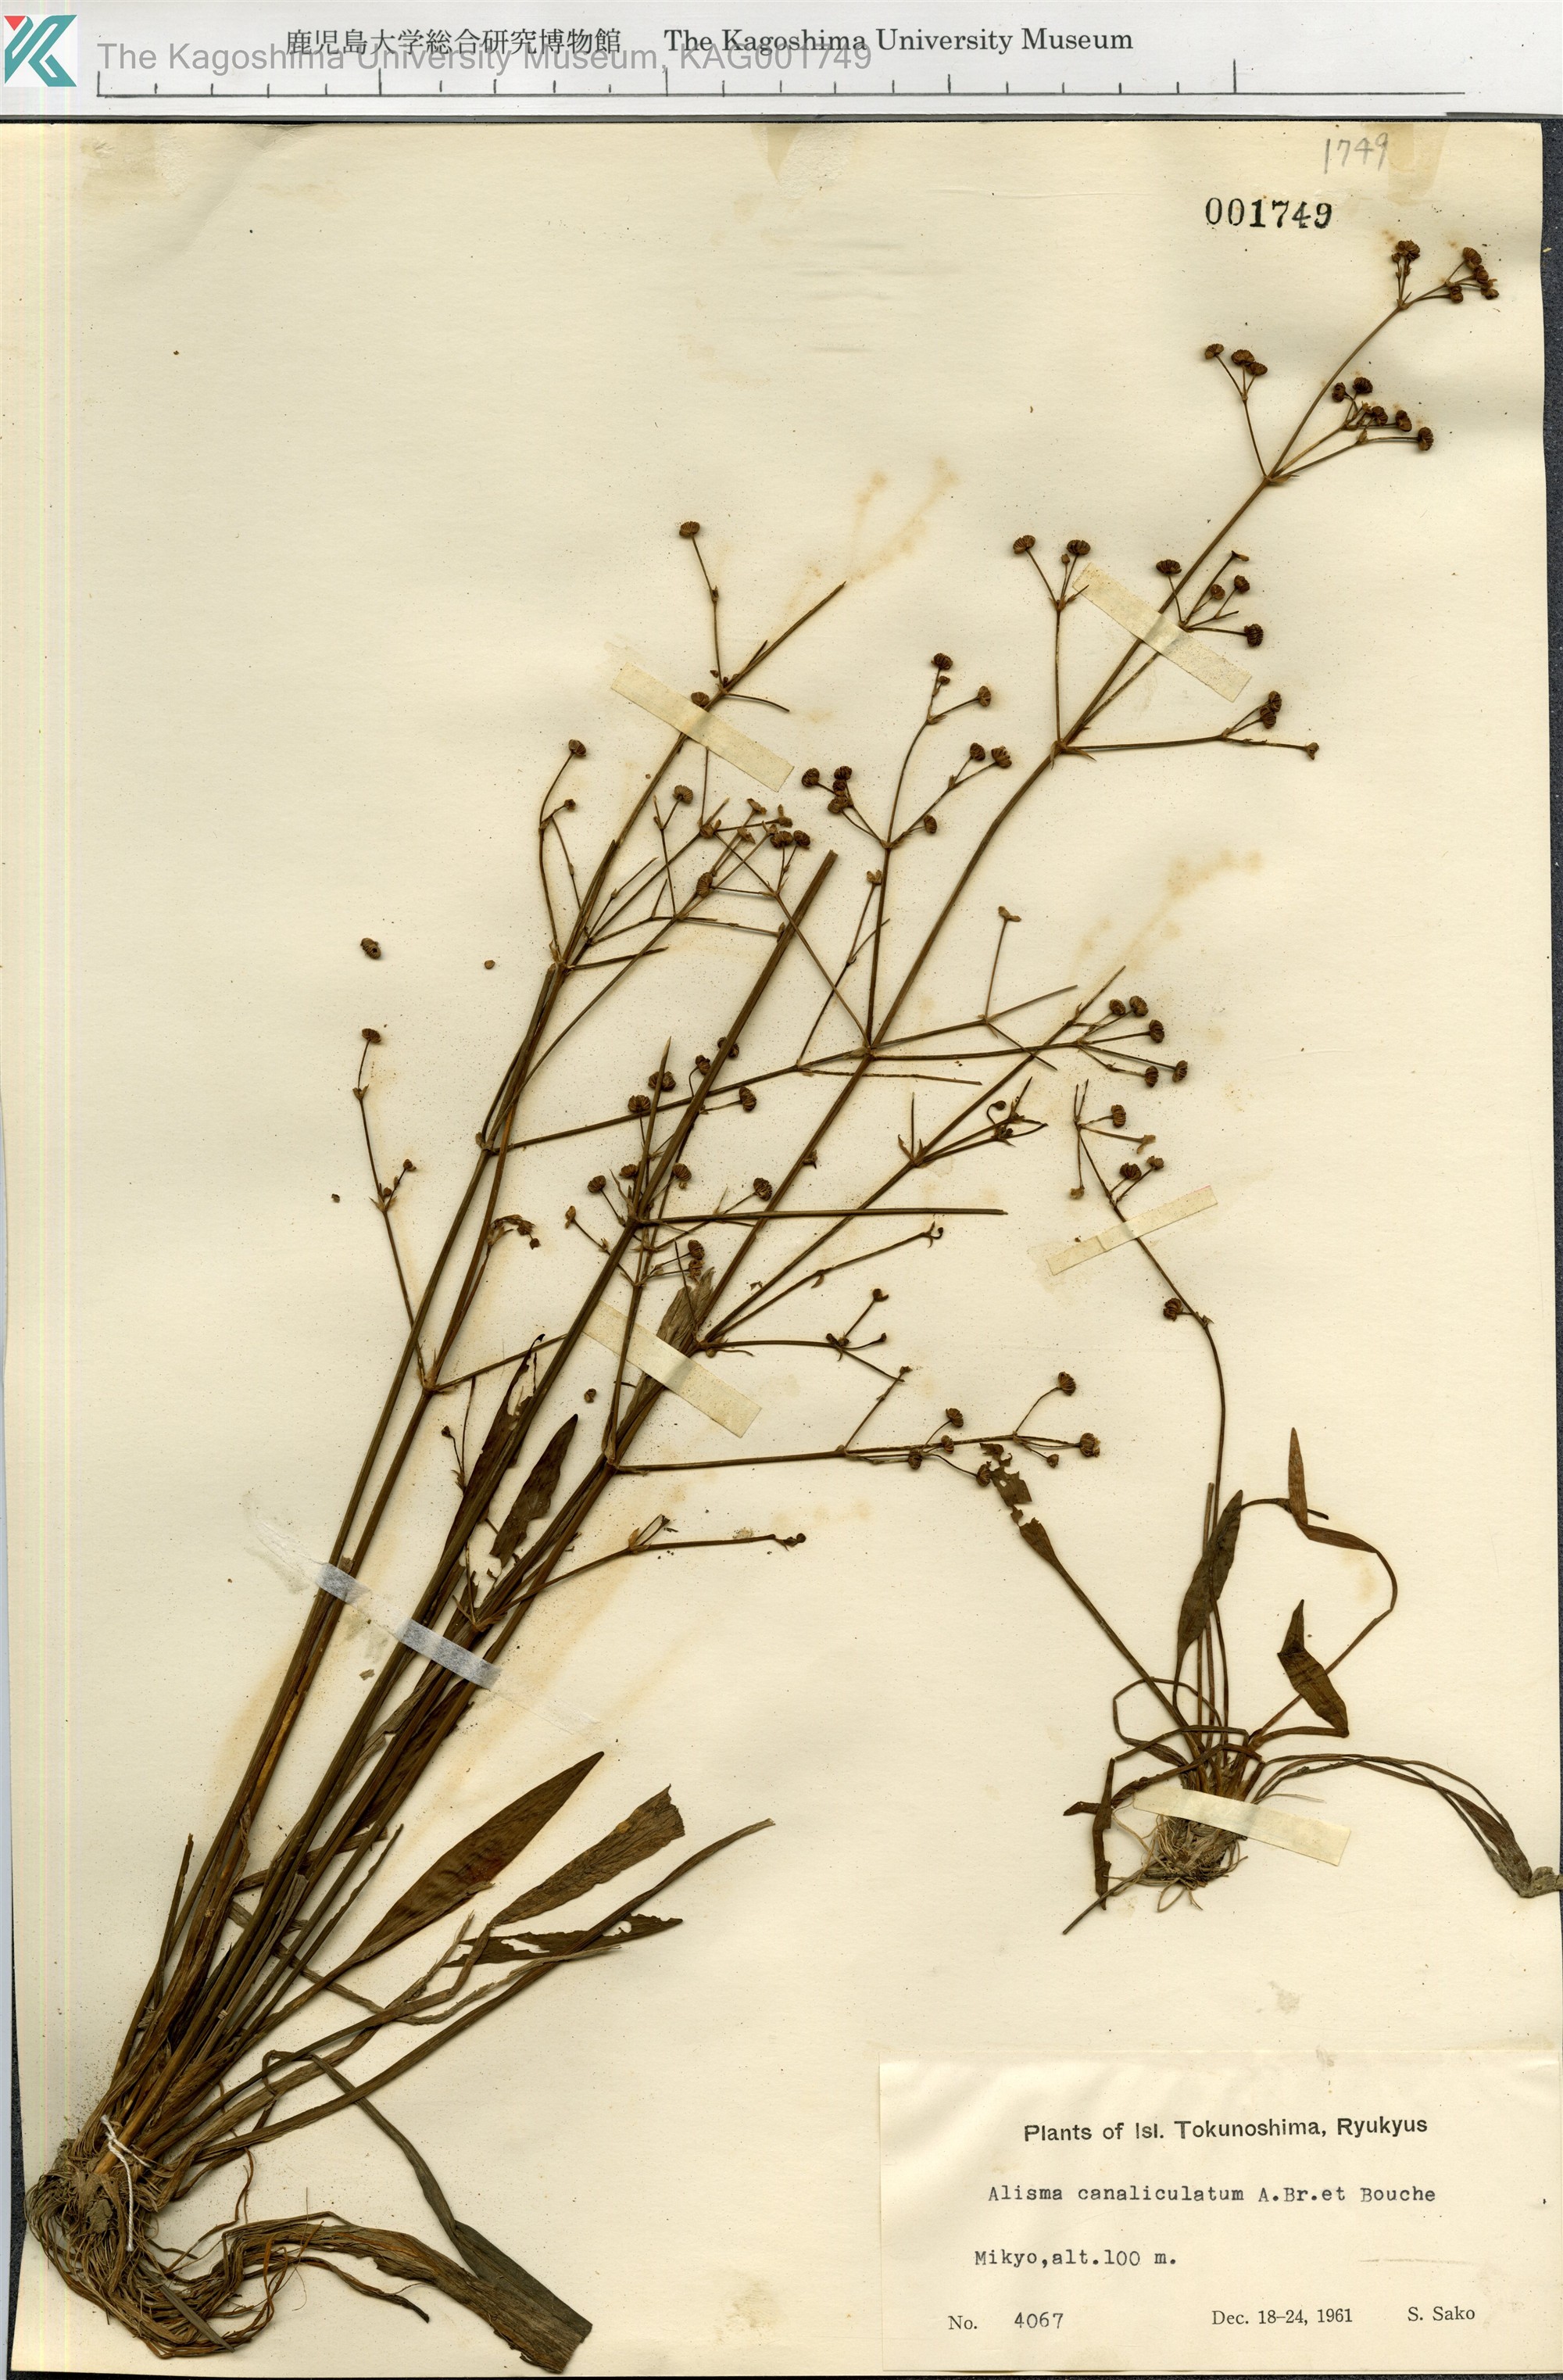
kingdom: Plantae
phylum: Tracheophyta
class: Liliopsida
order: Alismatales
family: Alismataceae
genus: Alisma
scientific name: Alisma canaliculatum
